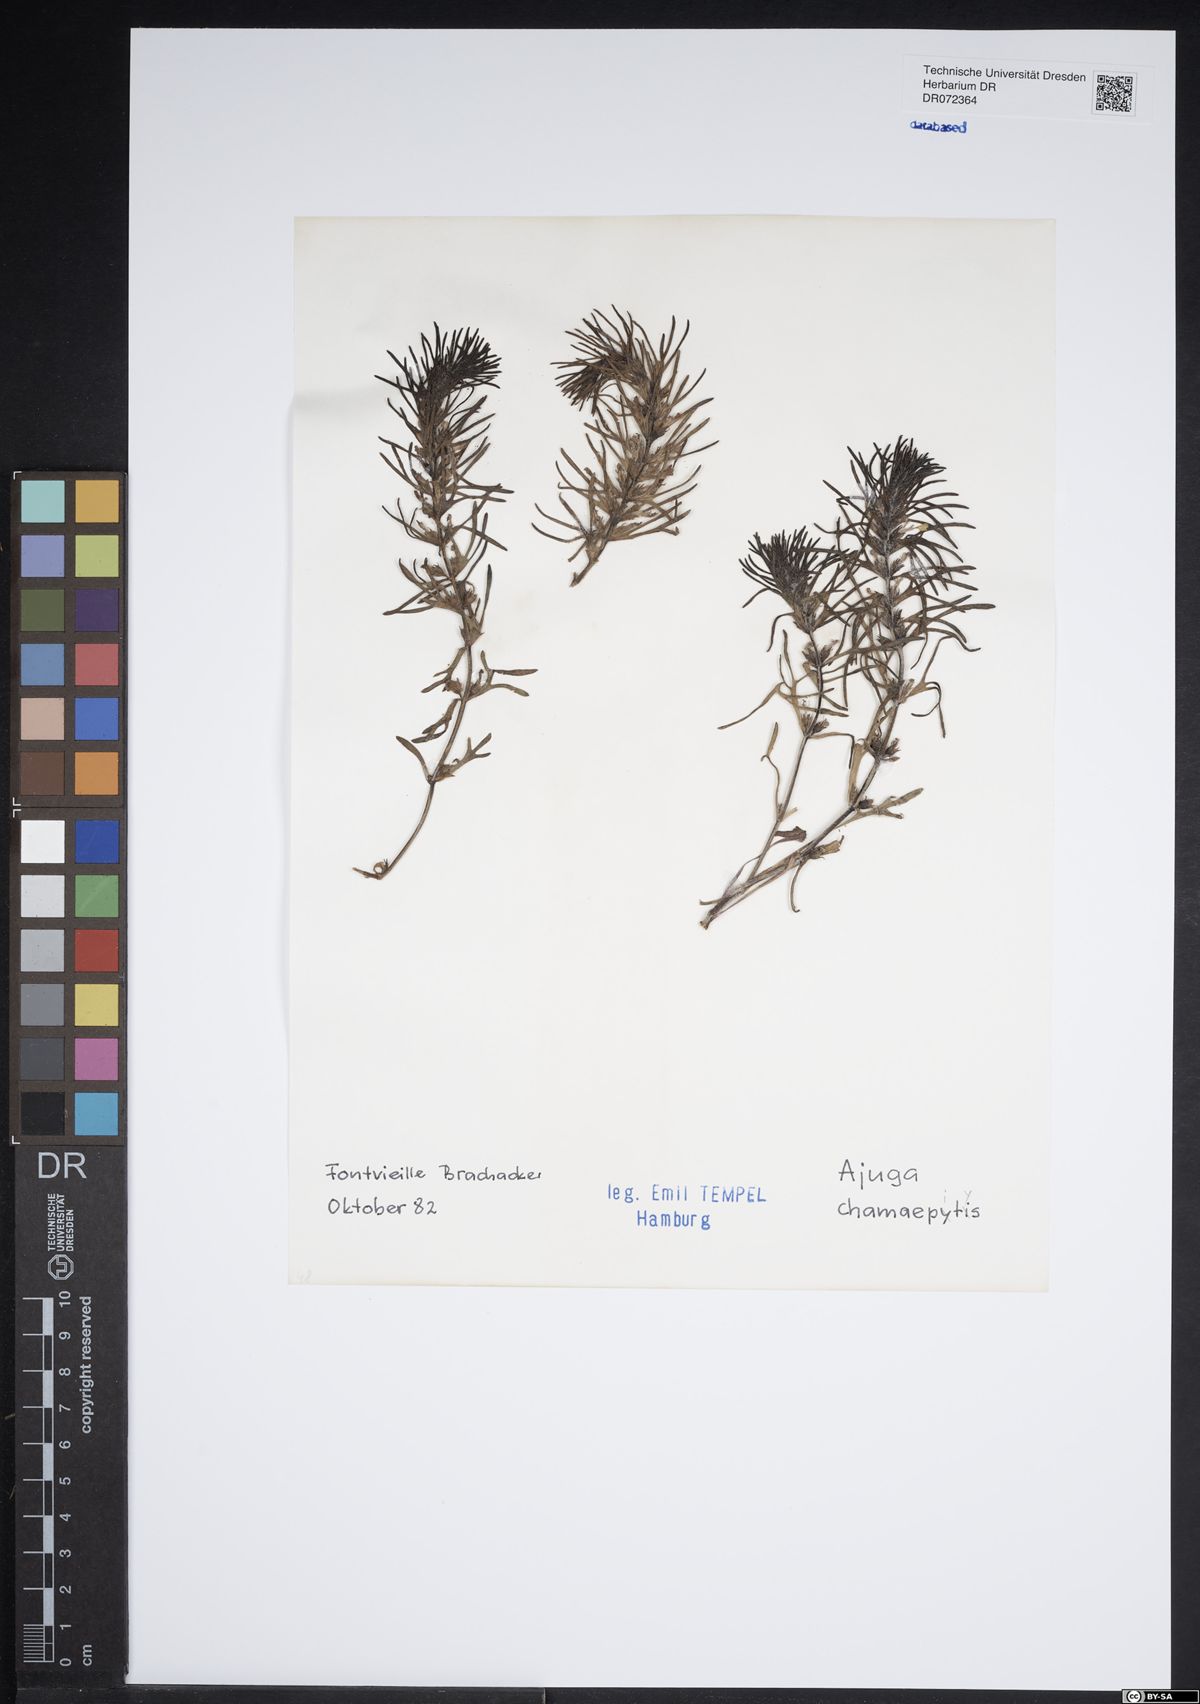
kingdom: Plantae
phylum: Tracheophyta
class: Magnoliopsida
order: Lamiales
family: Lamiaceae
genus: Ajuga
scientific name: Ajuga chamaepitys
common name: Ground-pine
